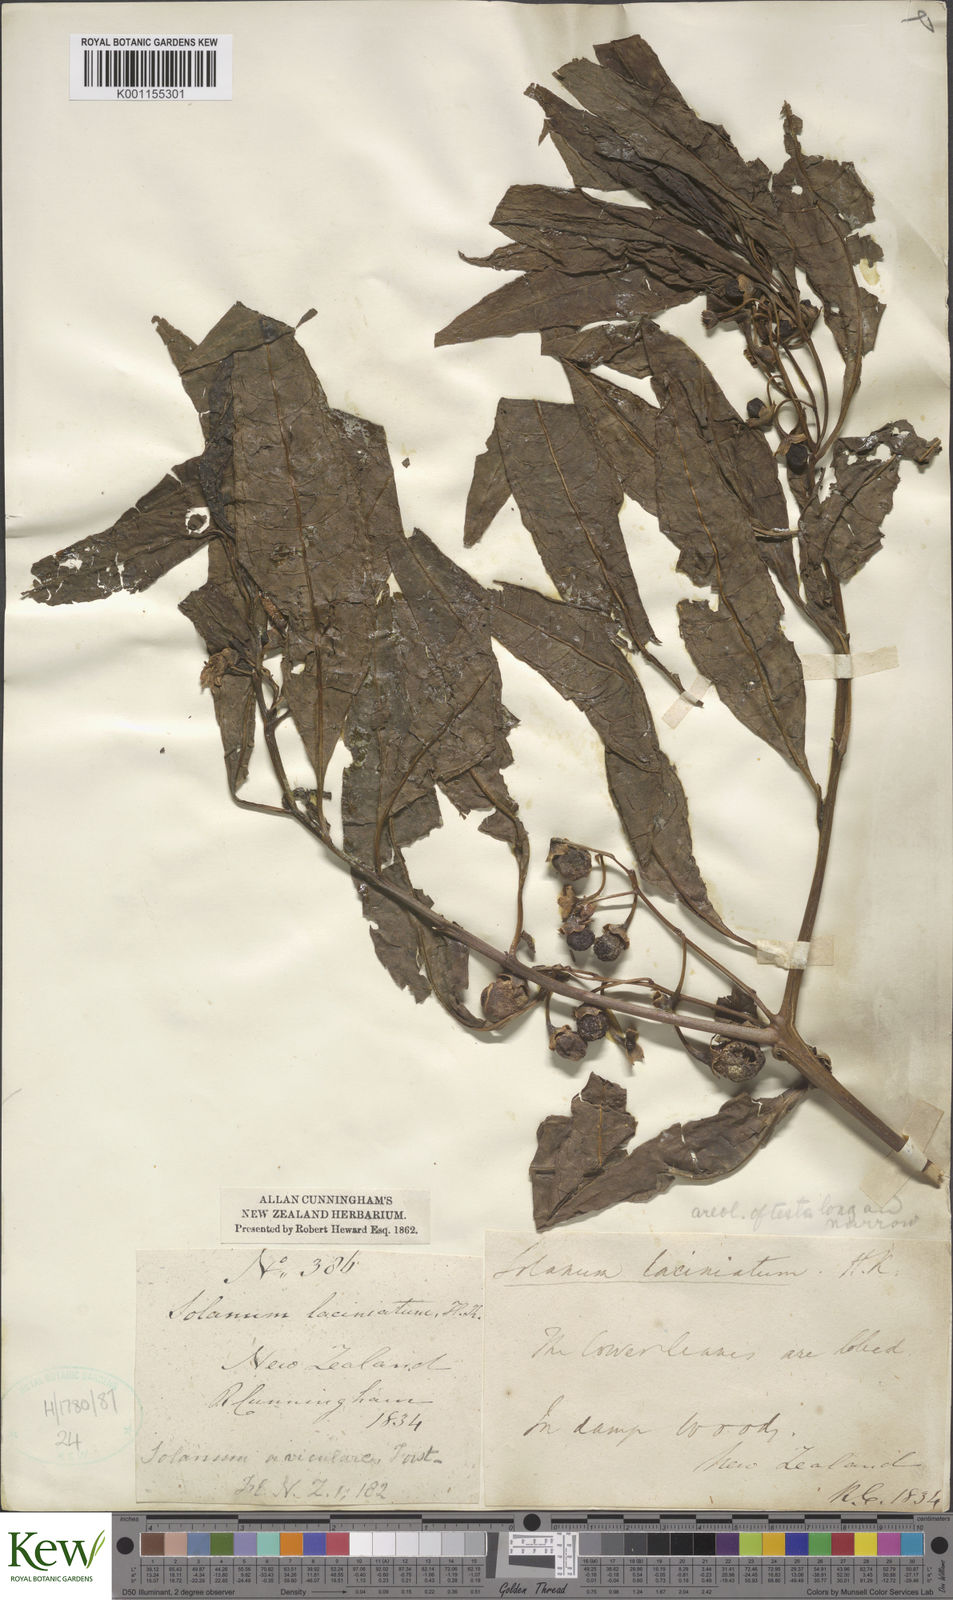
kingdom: Plantae
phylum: Tracheophyta
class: Magnoliopsida
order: Solanales
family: Solanaceae
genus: Solanum
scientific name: Solanum laciniatum
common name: Kangaroo-apple
